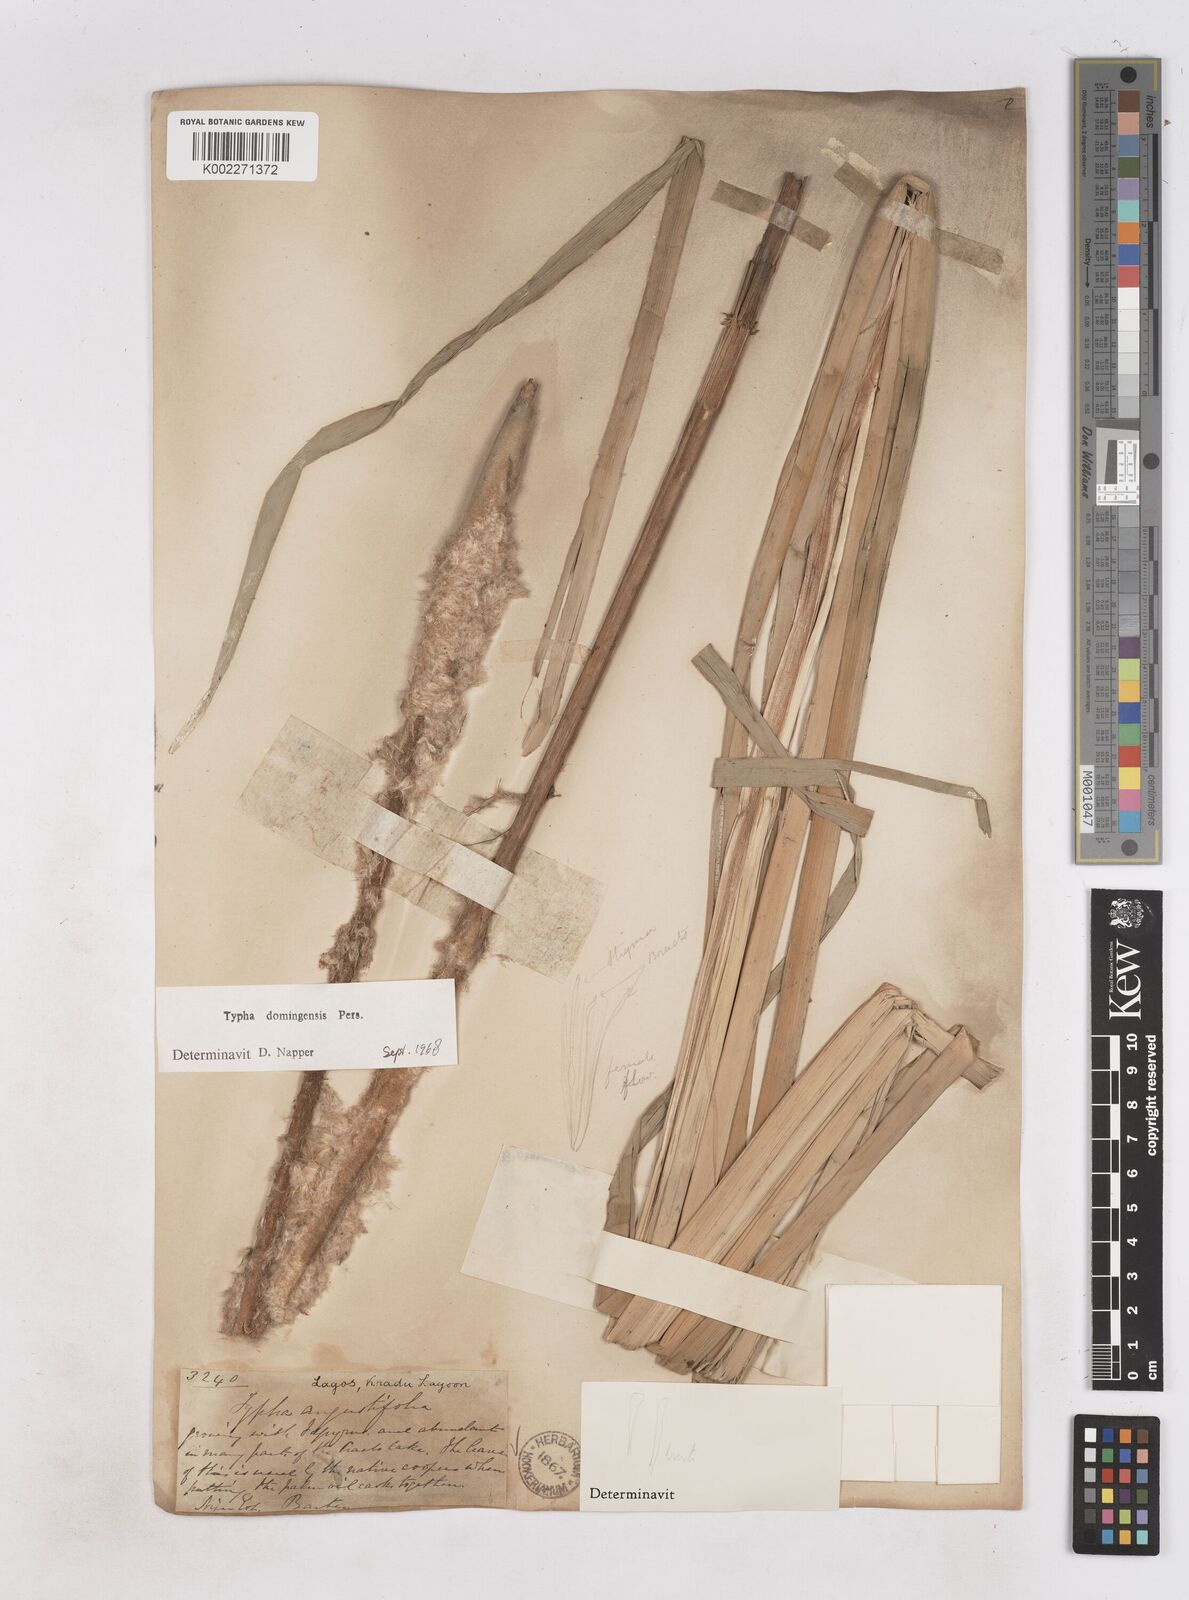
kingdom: Plantae
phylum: Tracheophyta
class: Liliopsida
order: Poales
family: Typhaceae
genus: Typha
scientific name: Typha domingensis
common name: Southern cattail
